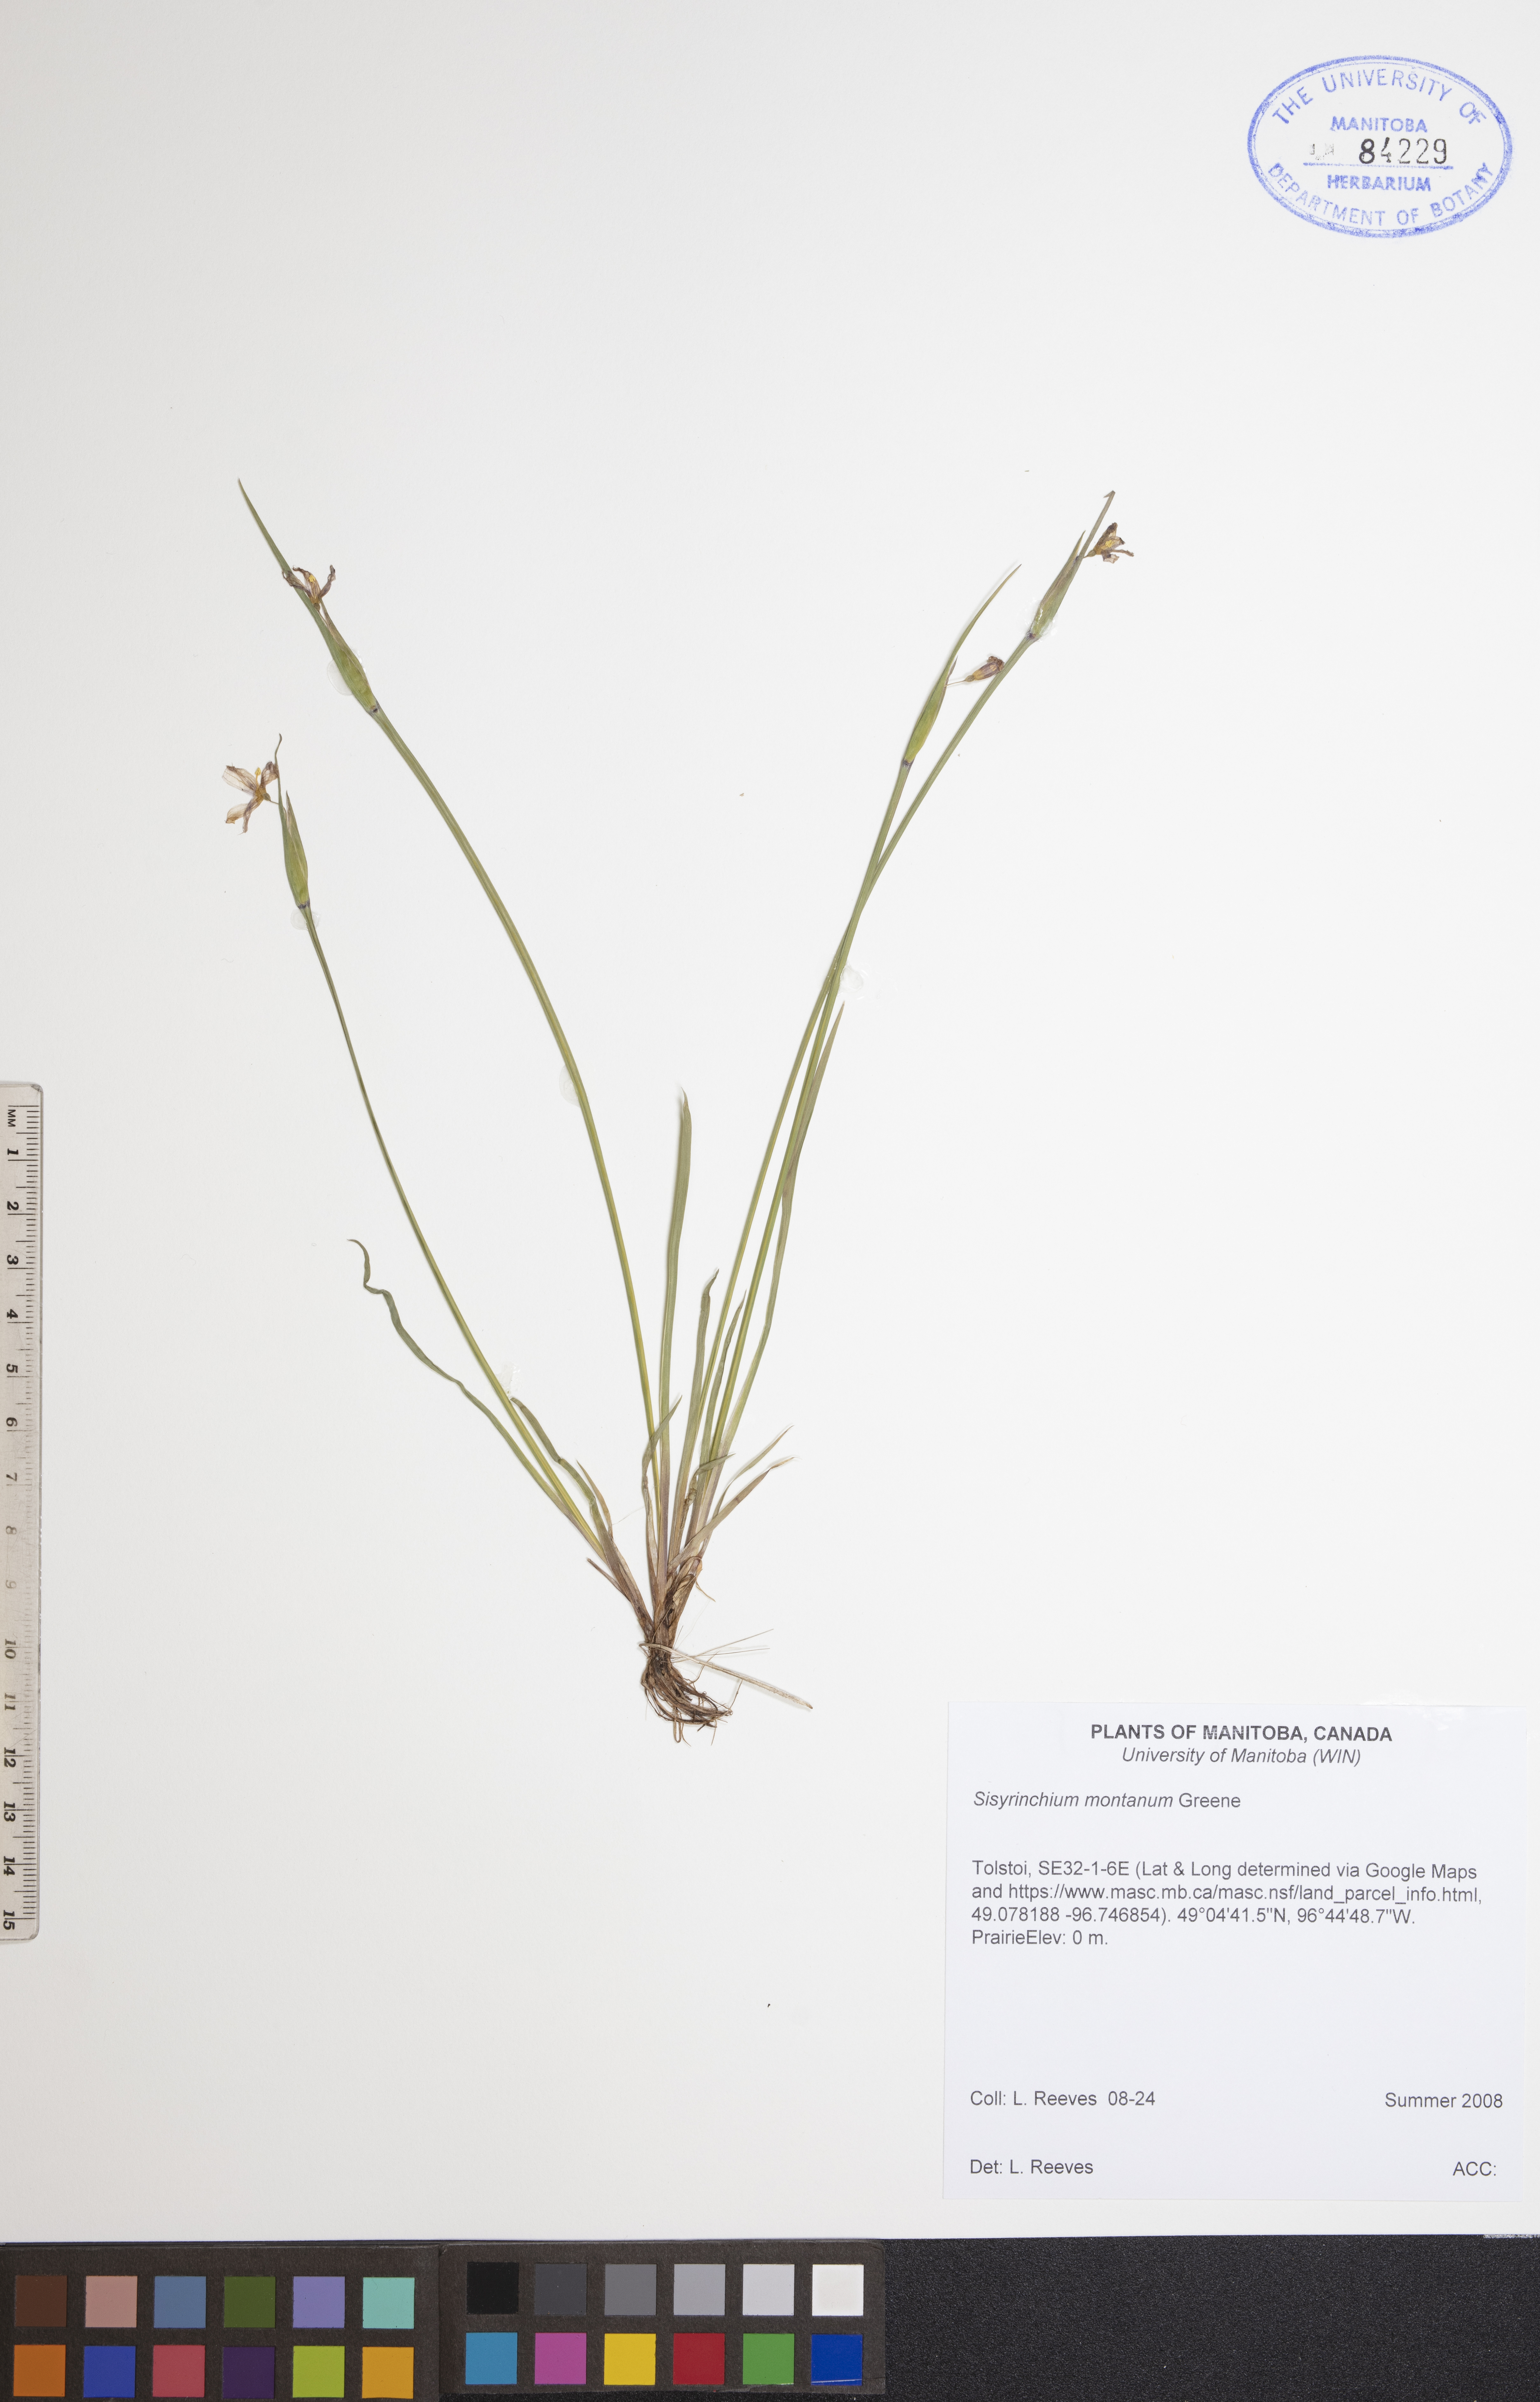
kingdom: Plantae
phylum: Tracheophyta
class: Liliopsida
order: Asparagales
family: Iridaceae
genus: Sisyrinchium
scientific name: Sisyrinchium montanum
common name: American blue-eyed-grass
